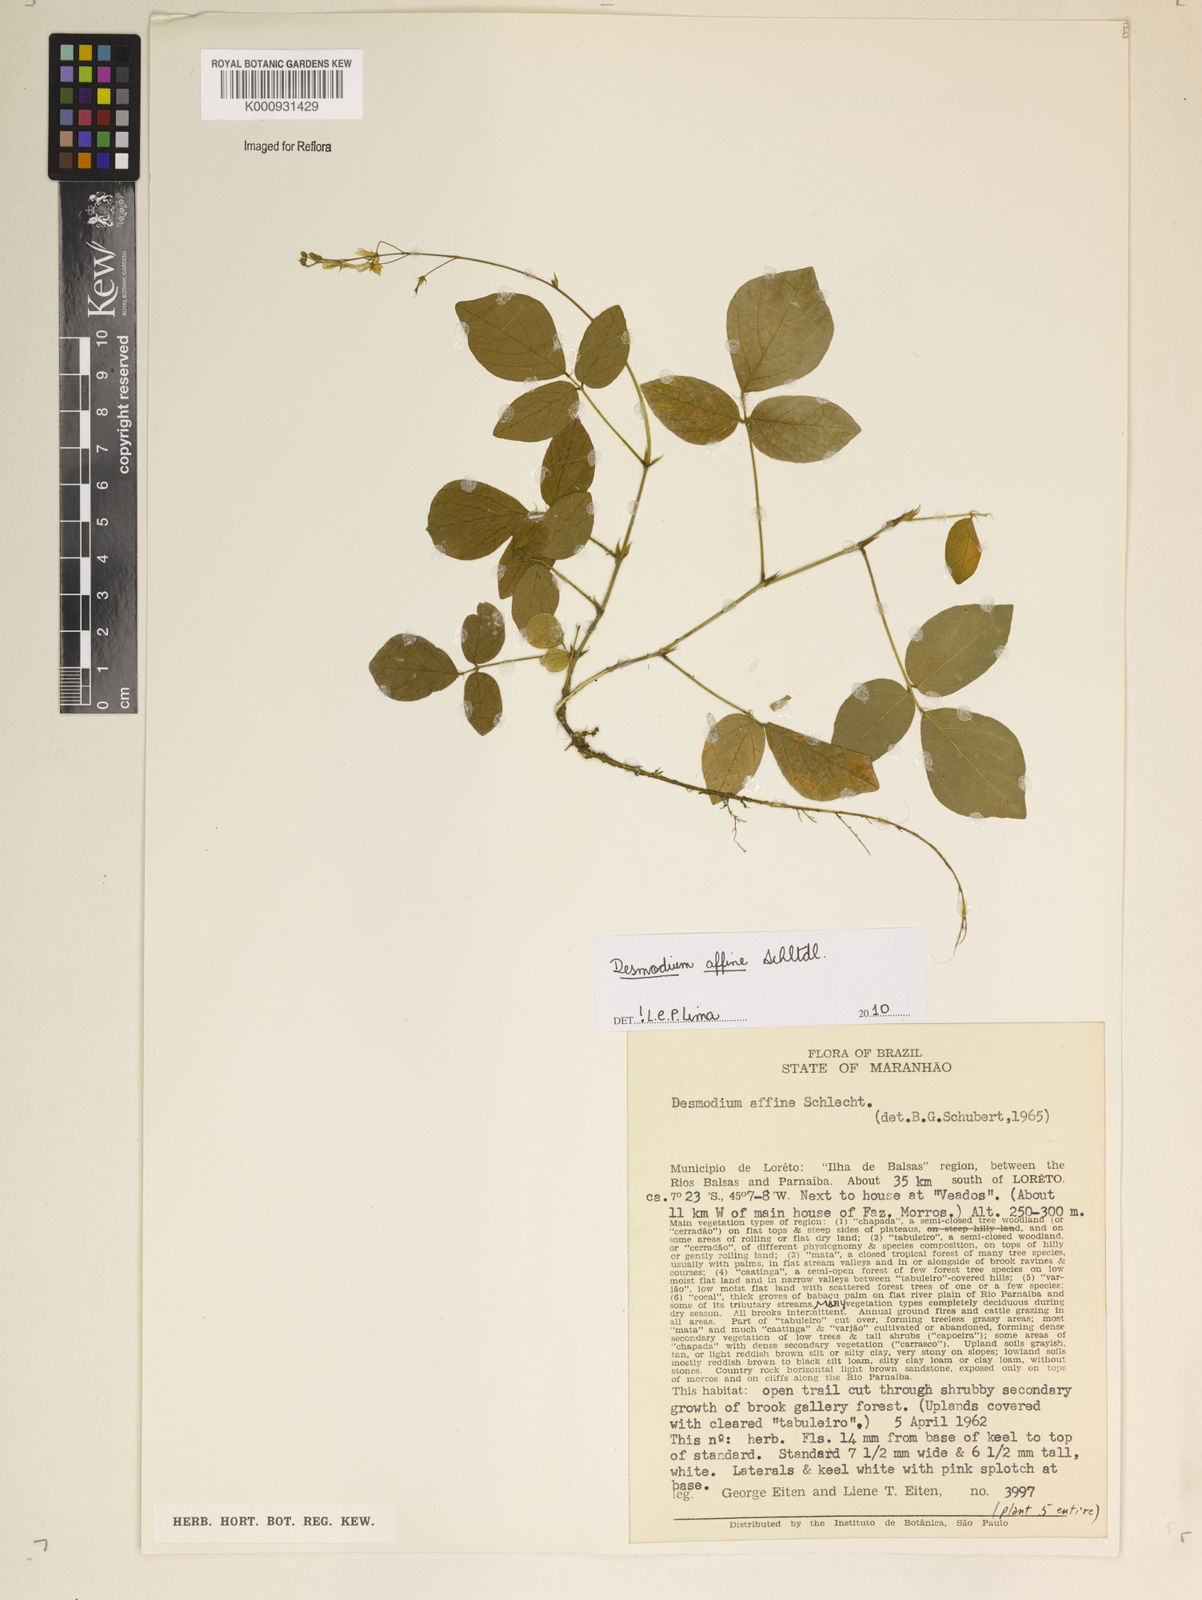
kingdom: Plantae
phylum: Tracheophyta
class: Magnoliopsida
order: Fabales
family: Fabaceae
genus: Desmodium
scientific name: Desmodium affine
